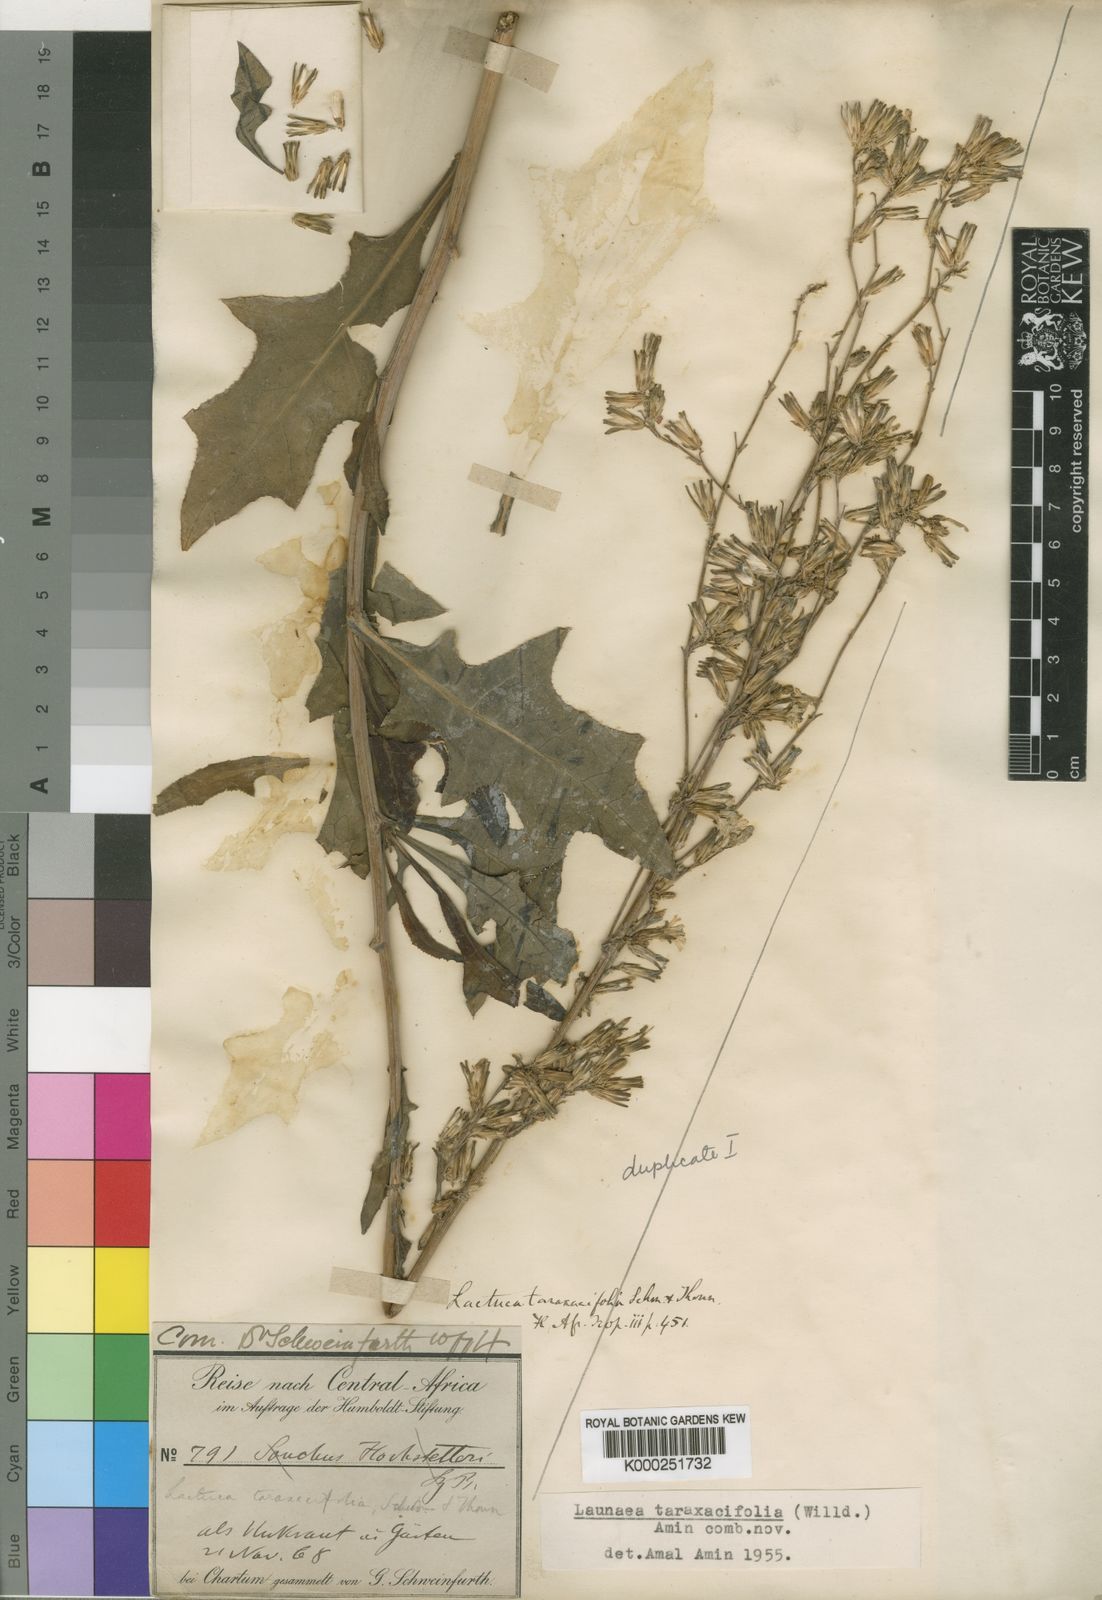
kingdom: Plantae
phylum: Tracheophyta
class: Magnoliopsida
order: Asterales
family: Asteraceae
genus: Launaea
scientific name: Launaea taraxacifolia
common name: African-lettuce
